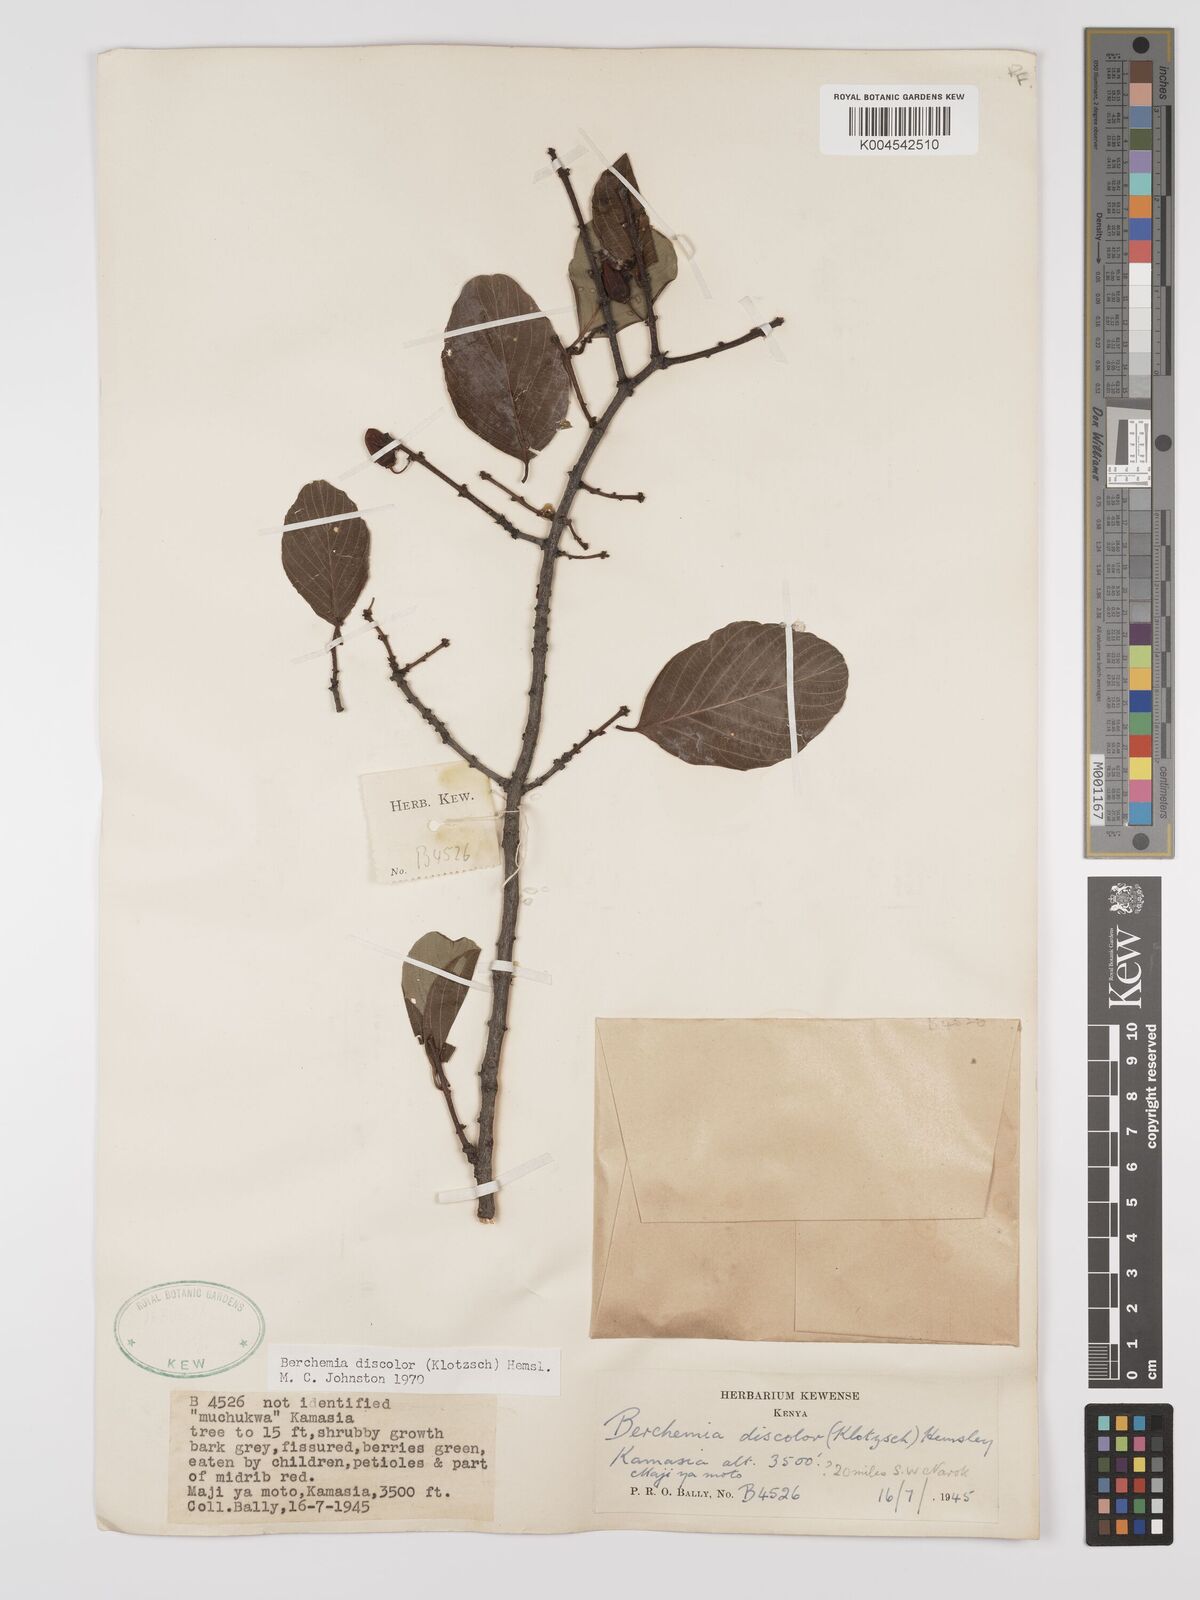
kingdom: Plantae
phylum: Tracheophyta
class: Magnoliopsida
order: Rosales
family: Rhamnaceae
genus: Phyllogeiton
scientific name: Phyllogeiton discolor
